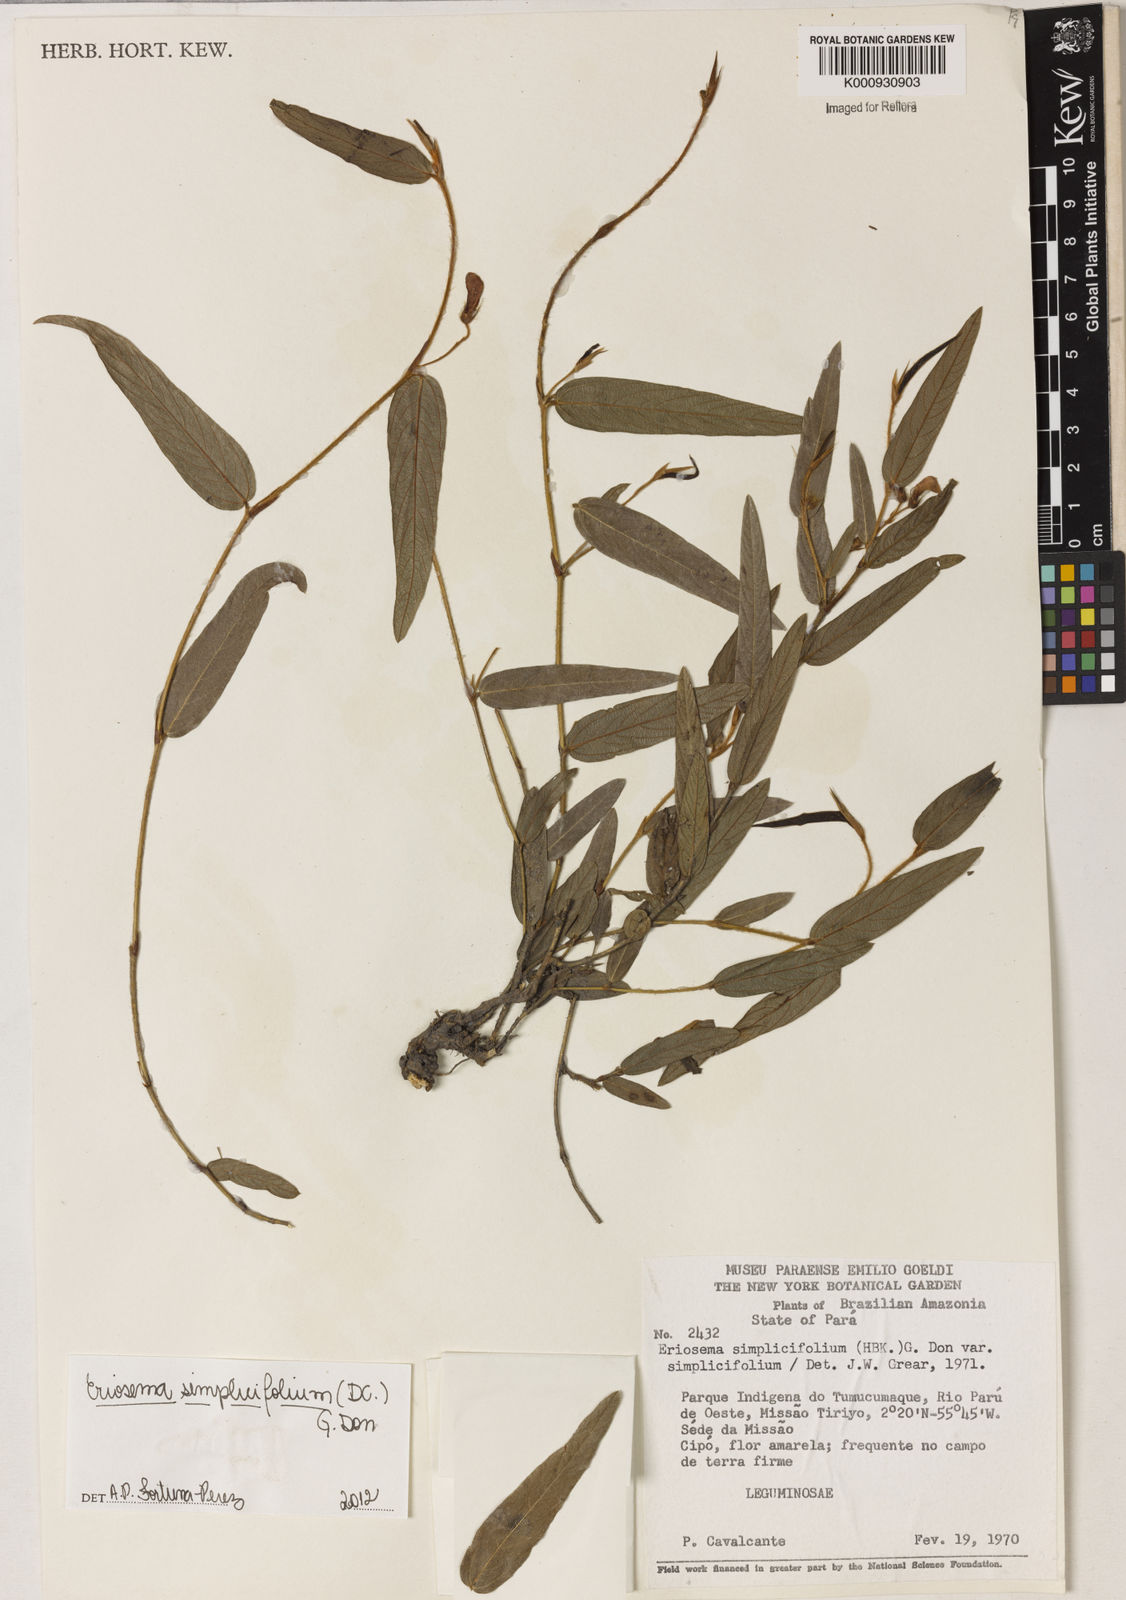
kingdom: Plantae
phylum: Tracheophyta
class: Magnoliopsida
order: Fabales
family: Fabaceae
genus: Eriosema
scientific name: Eriosema simplicifolium
